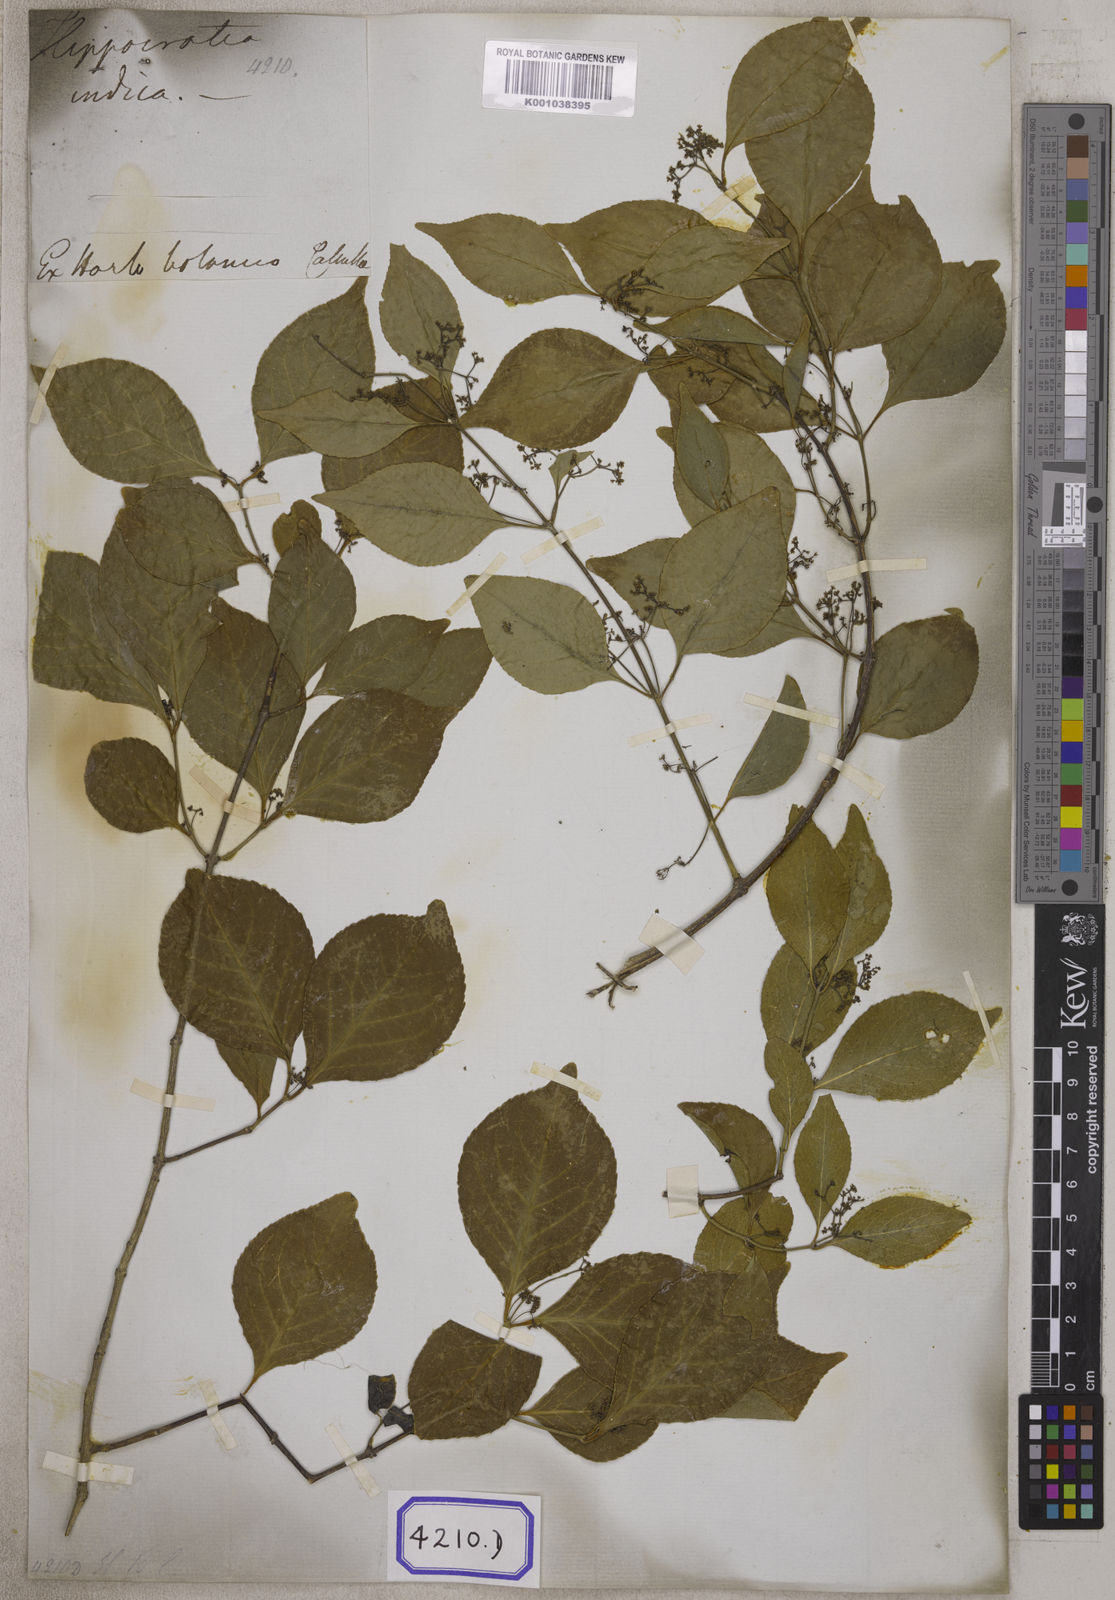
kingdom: Plantae
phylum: Tracheophyta
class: Magnoliopsida
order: Celastrales
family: Celastraceae
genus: Reissantia
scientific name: Reissantia indica
